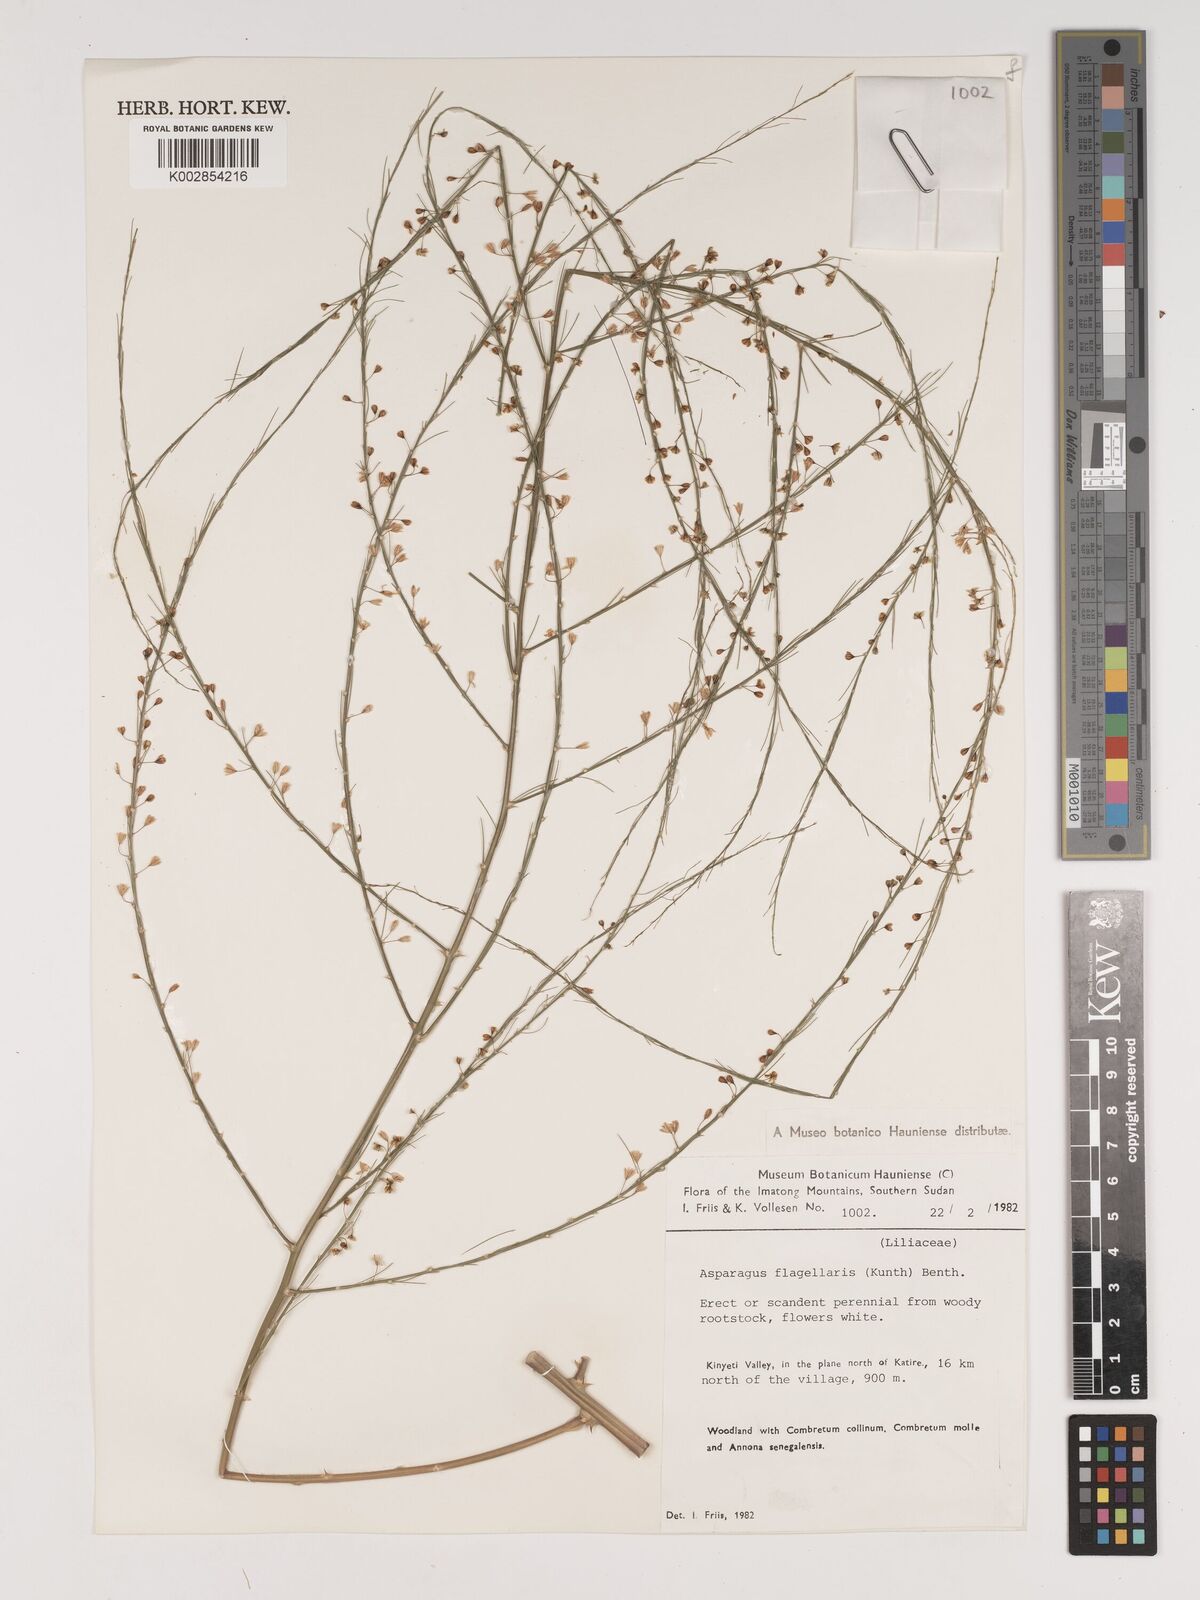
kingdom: Plantae
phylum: Tracheophyta
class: Liliopsida
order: Asparagales
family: Asparagaceae
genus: Asparagus
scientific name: Asparagus flagellaris
